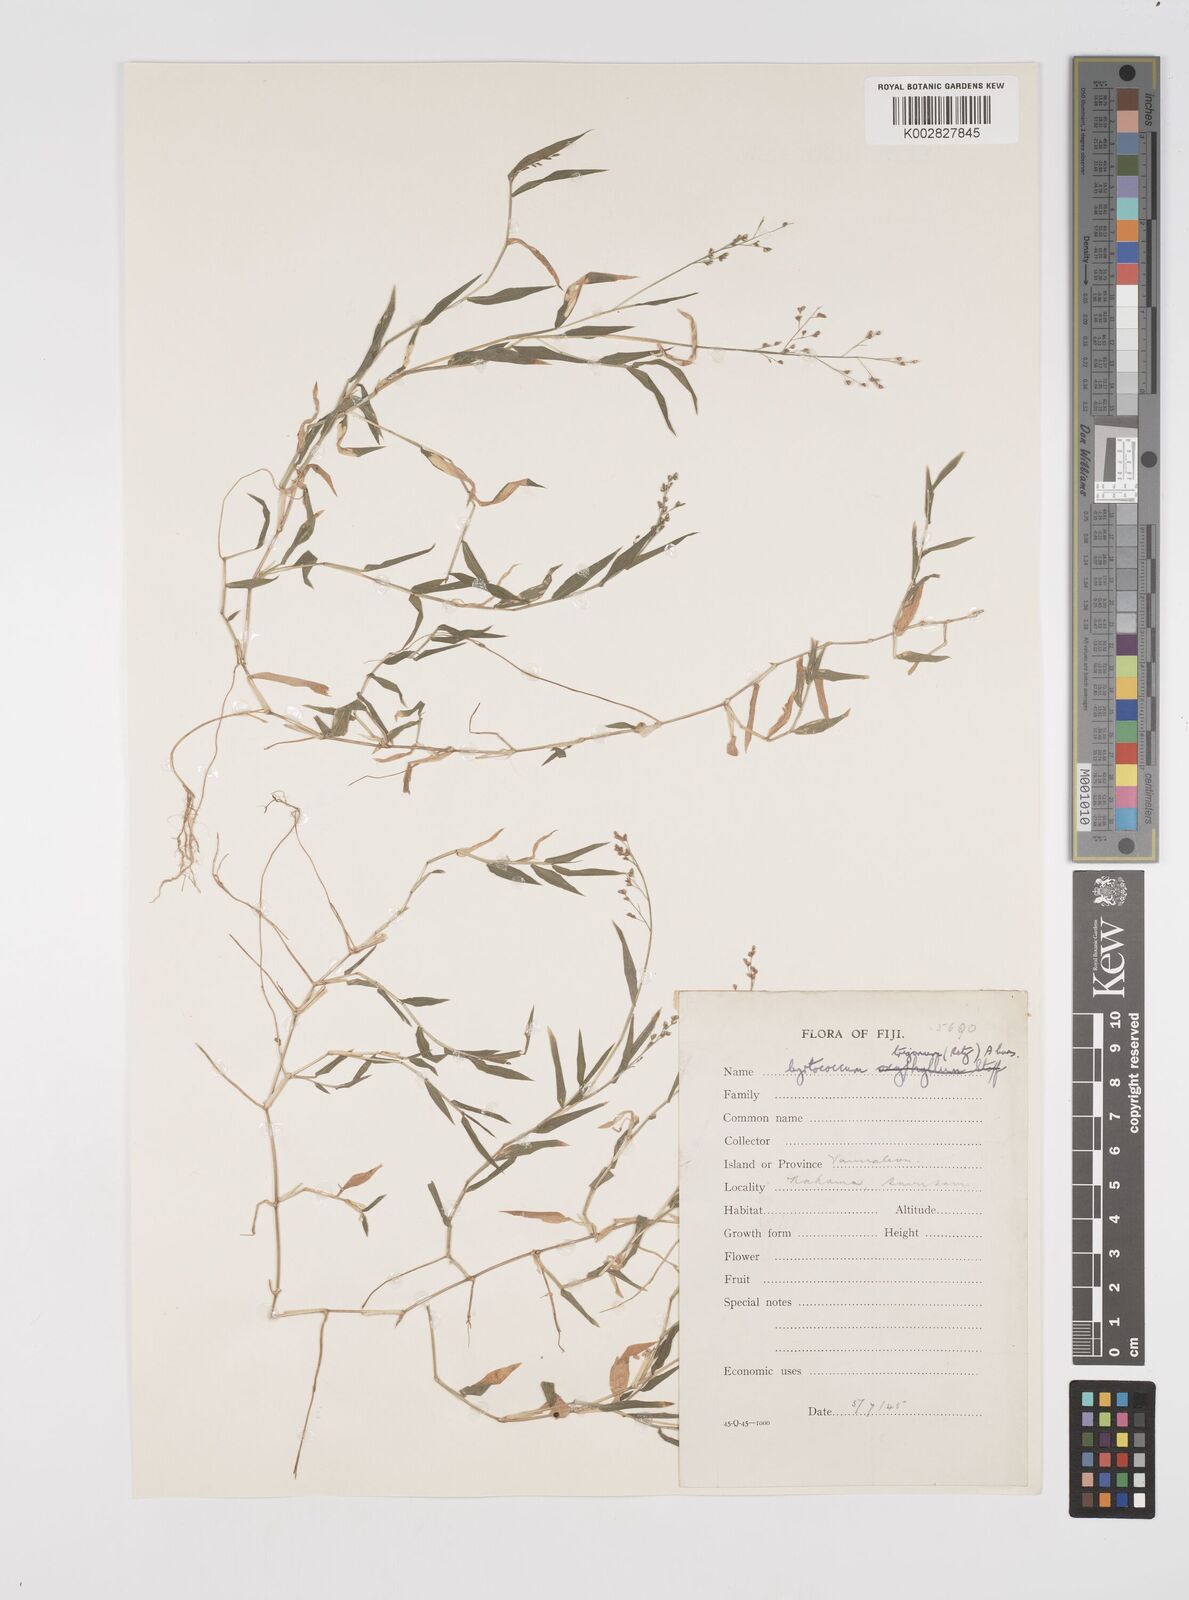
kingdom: Plantae
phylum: Tracheophyta
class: Liliopsida
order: Poales
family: Poaceae
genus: Cyrtococcum
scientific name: Cyrtococcum trigonum
